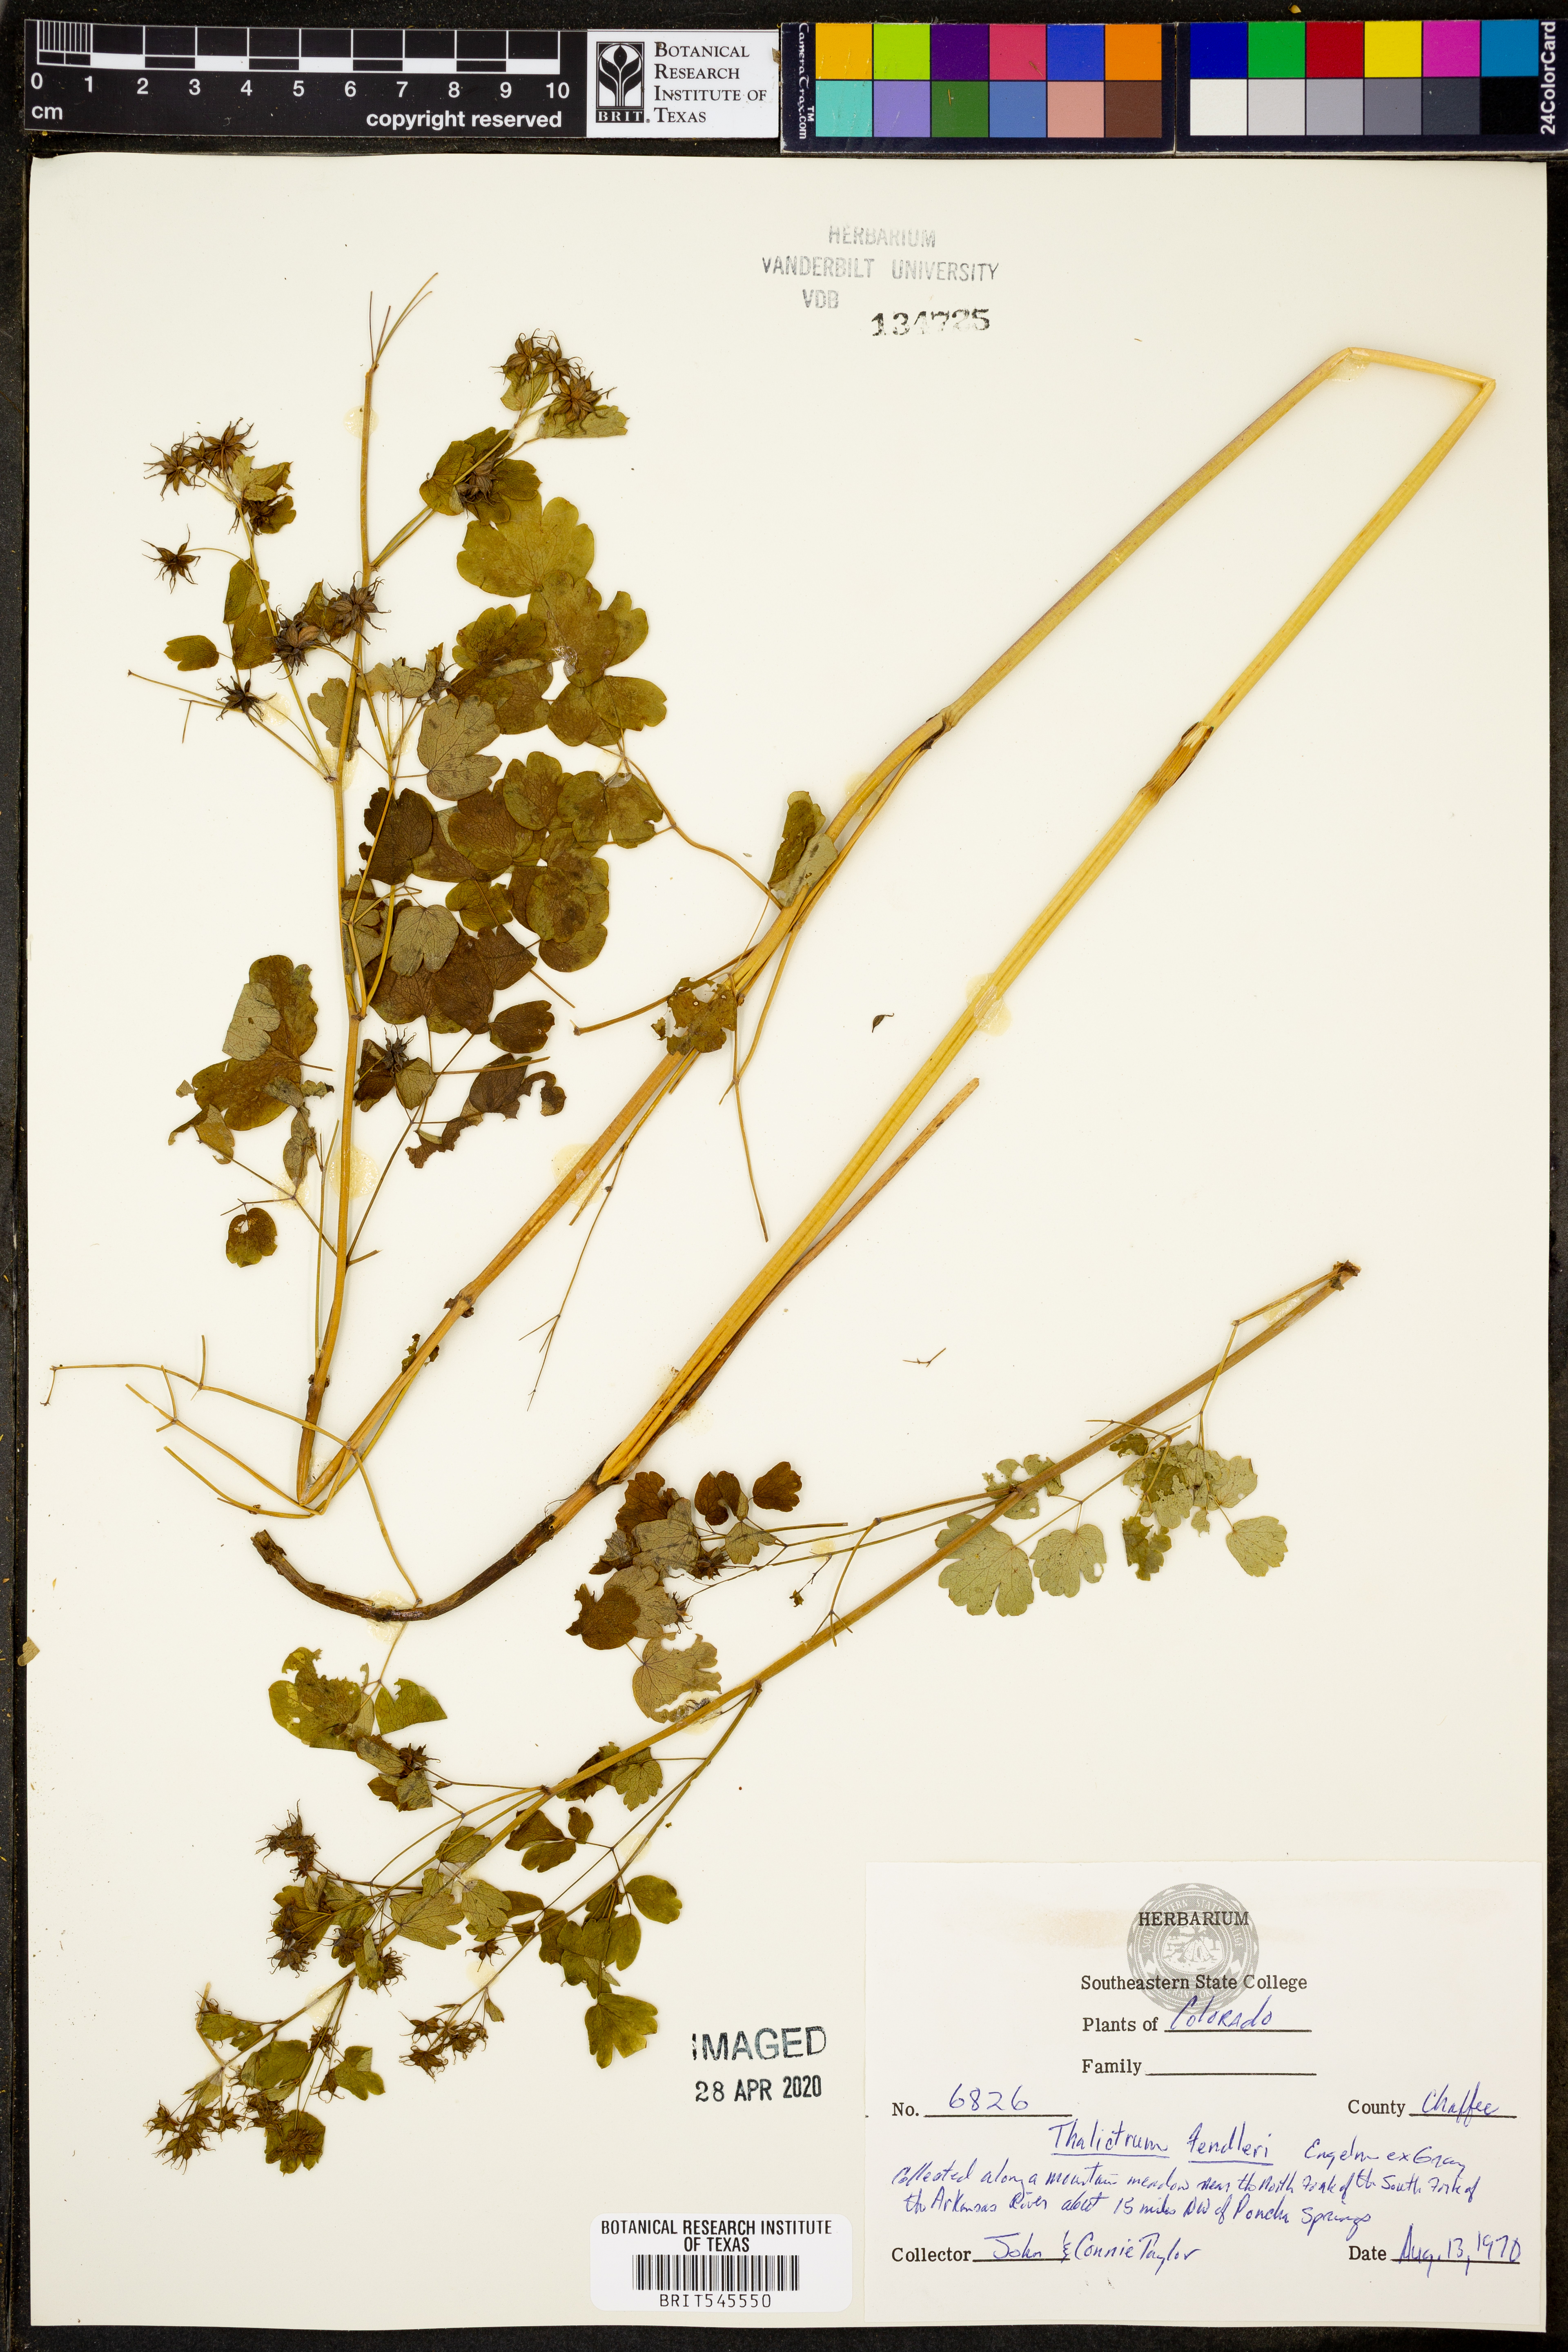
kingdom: Plantae
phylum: Tracheophyta
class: Magnoliopsida
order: Ranunculales
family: Ranunculaceae
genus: Thalictrum
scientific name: Thalictrum fendleri
